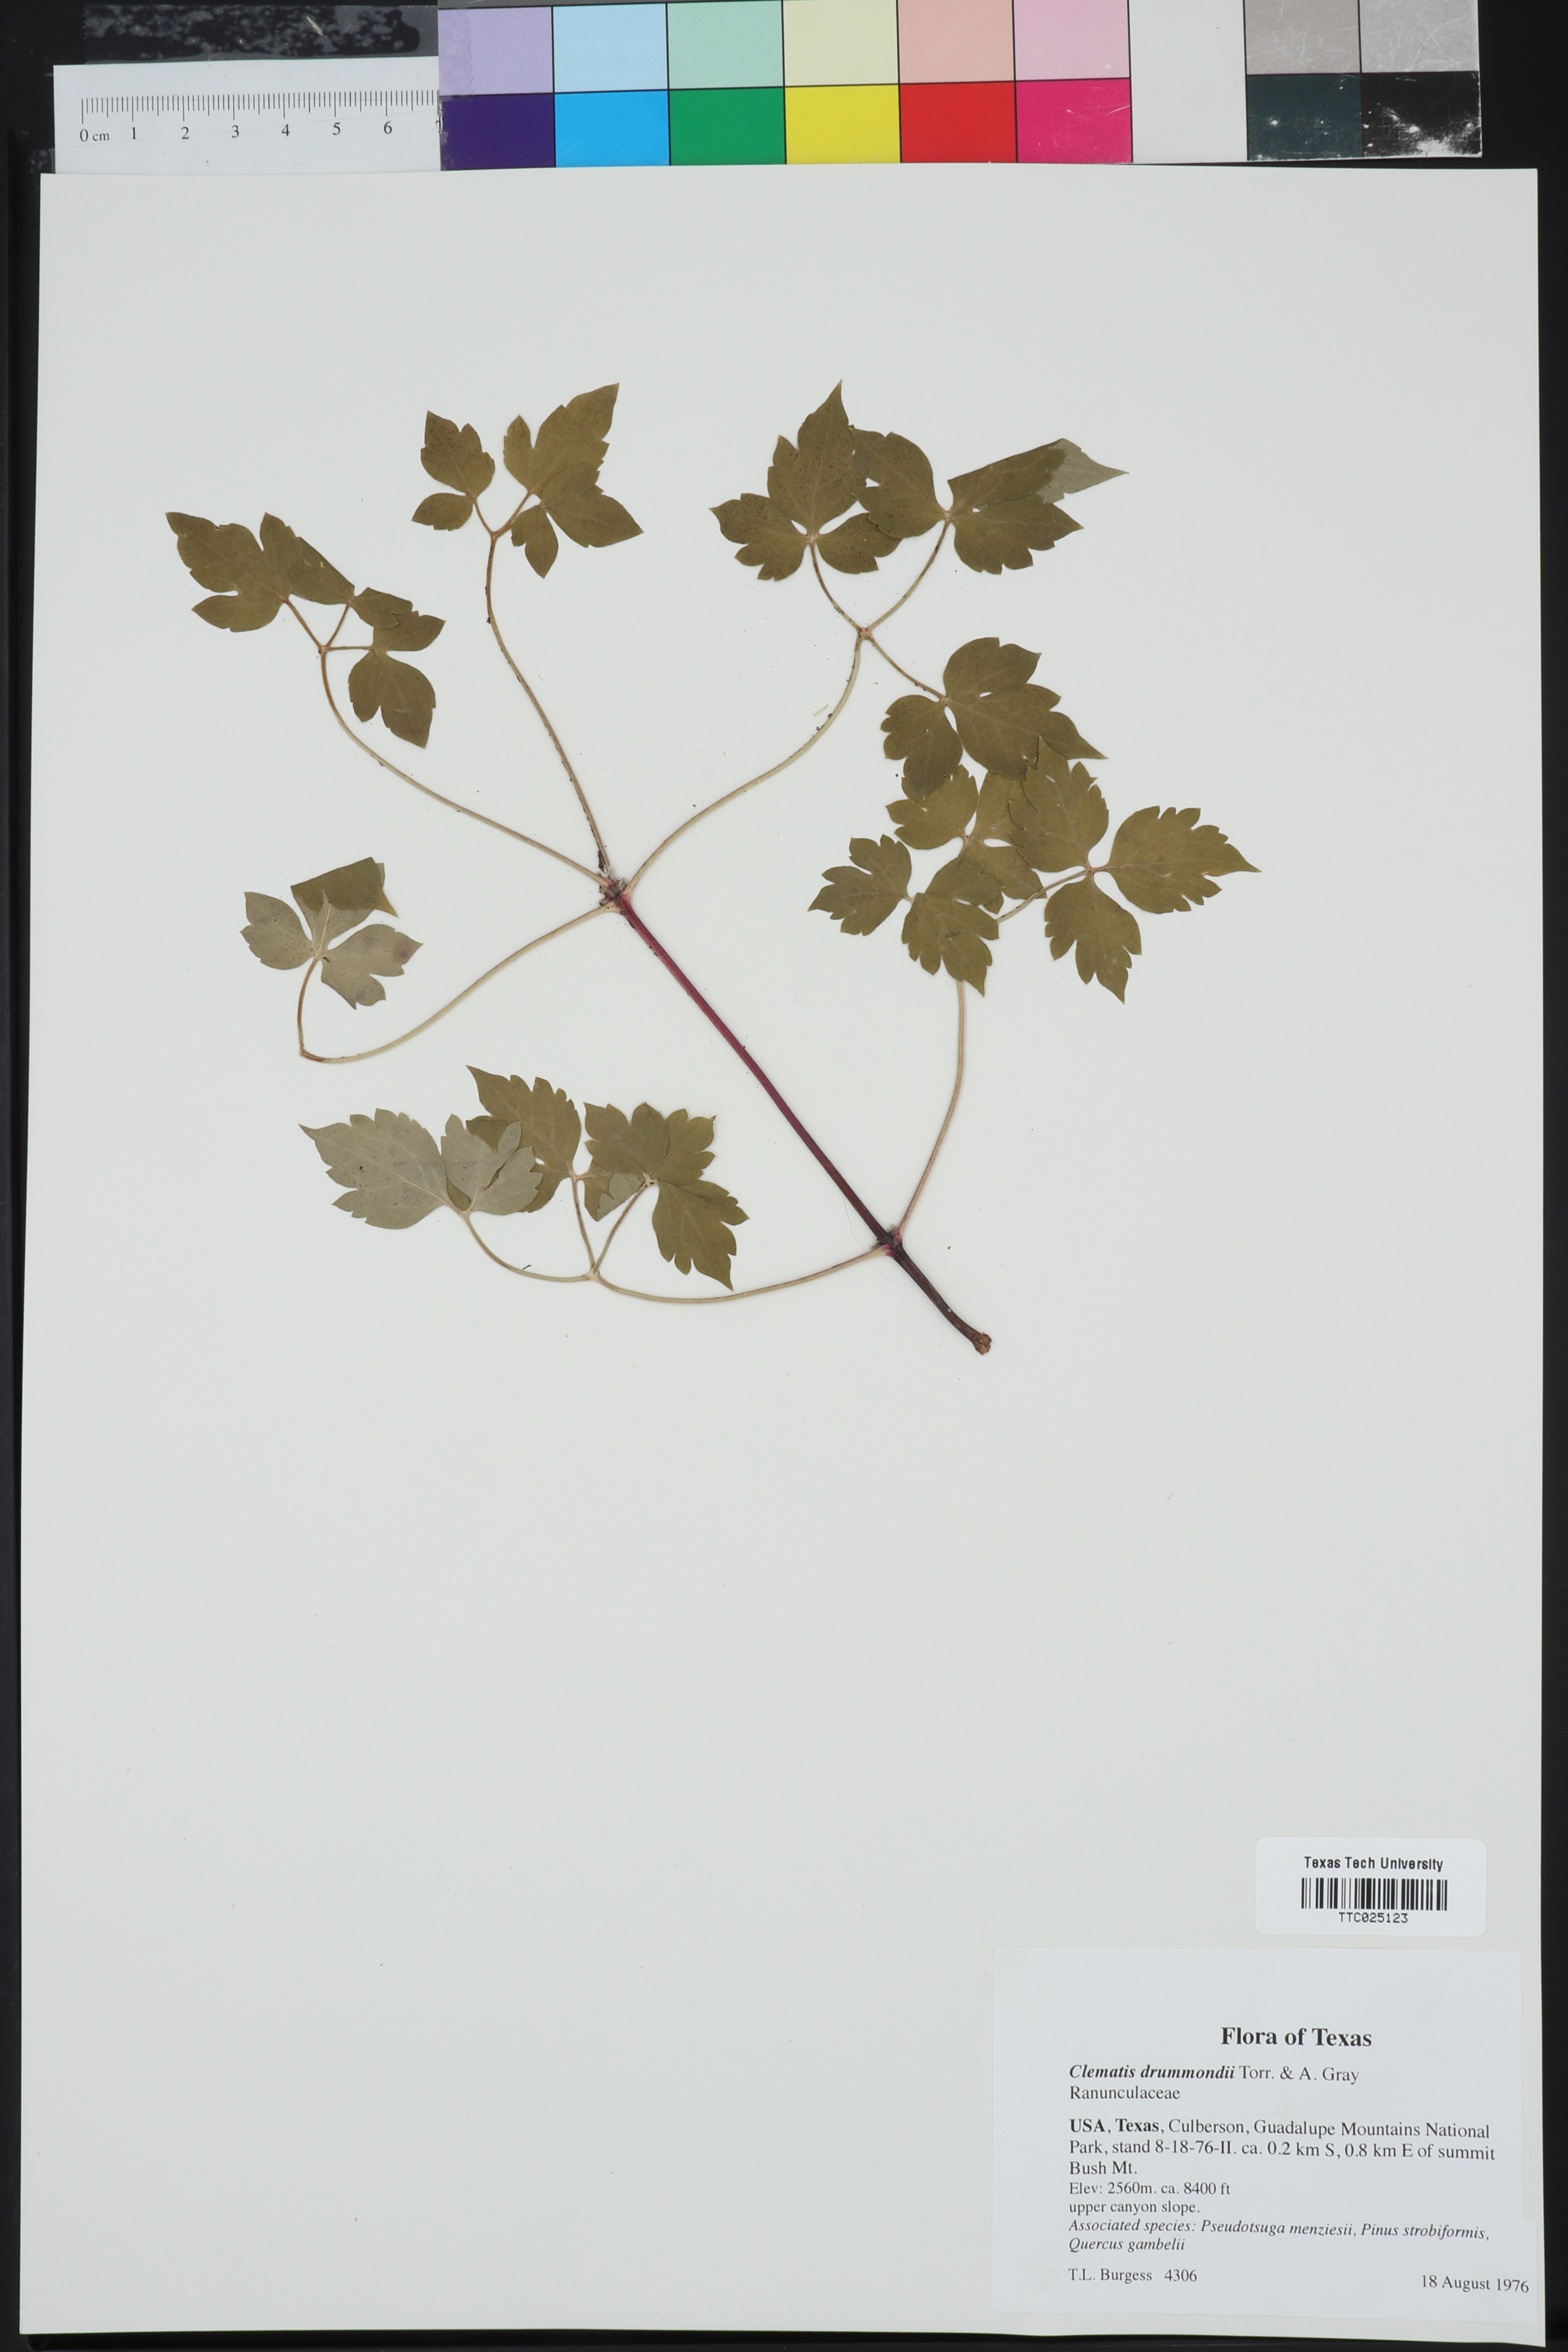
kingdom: Plantae
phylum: Tracheophyta
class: Magnoliopsida
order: Ranunculales
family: Ranunculaceae
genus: Clematis
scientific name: Clematis drummondii
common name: Texas virgin's bower
